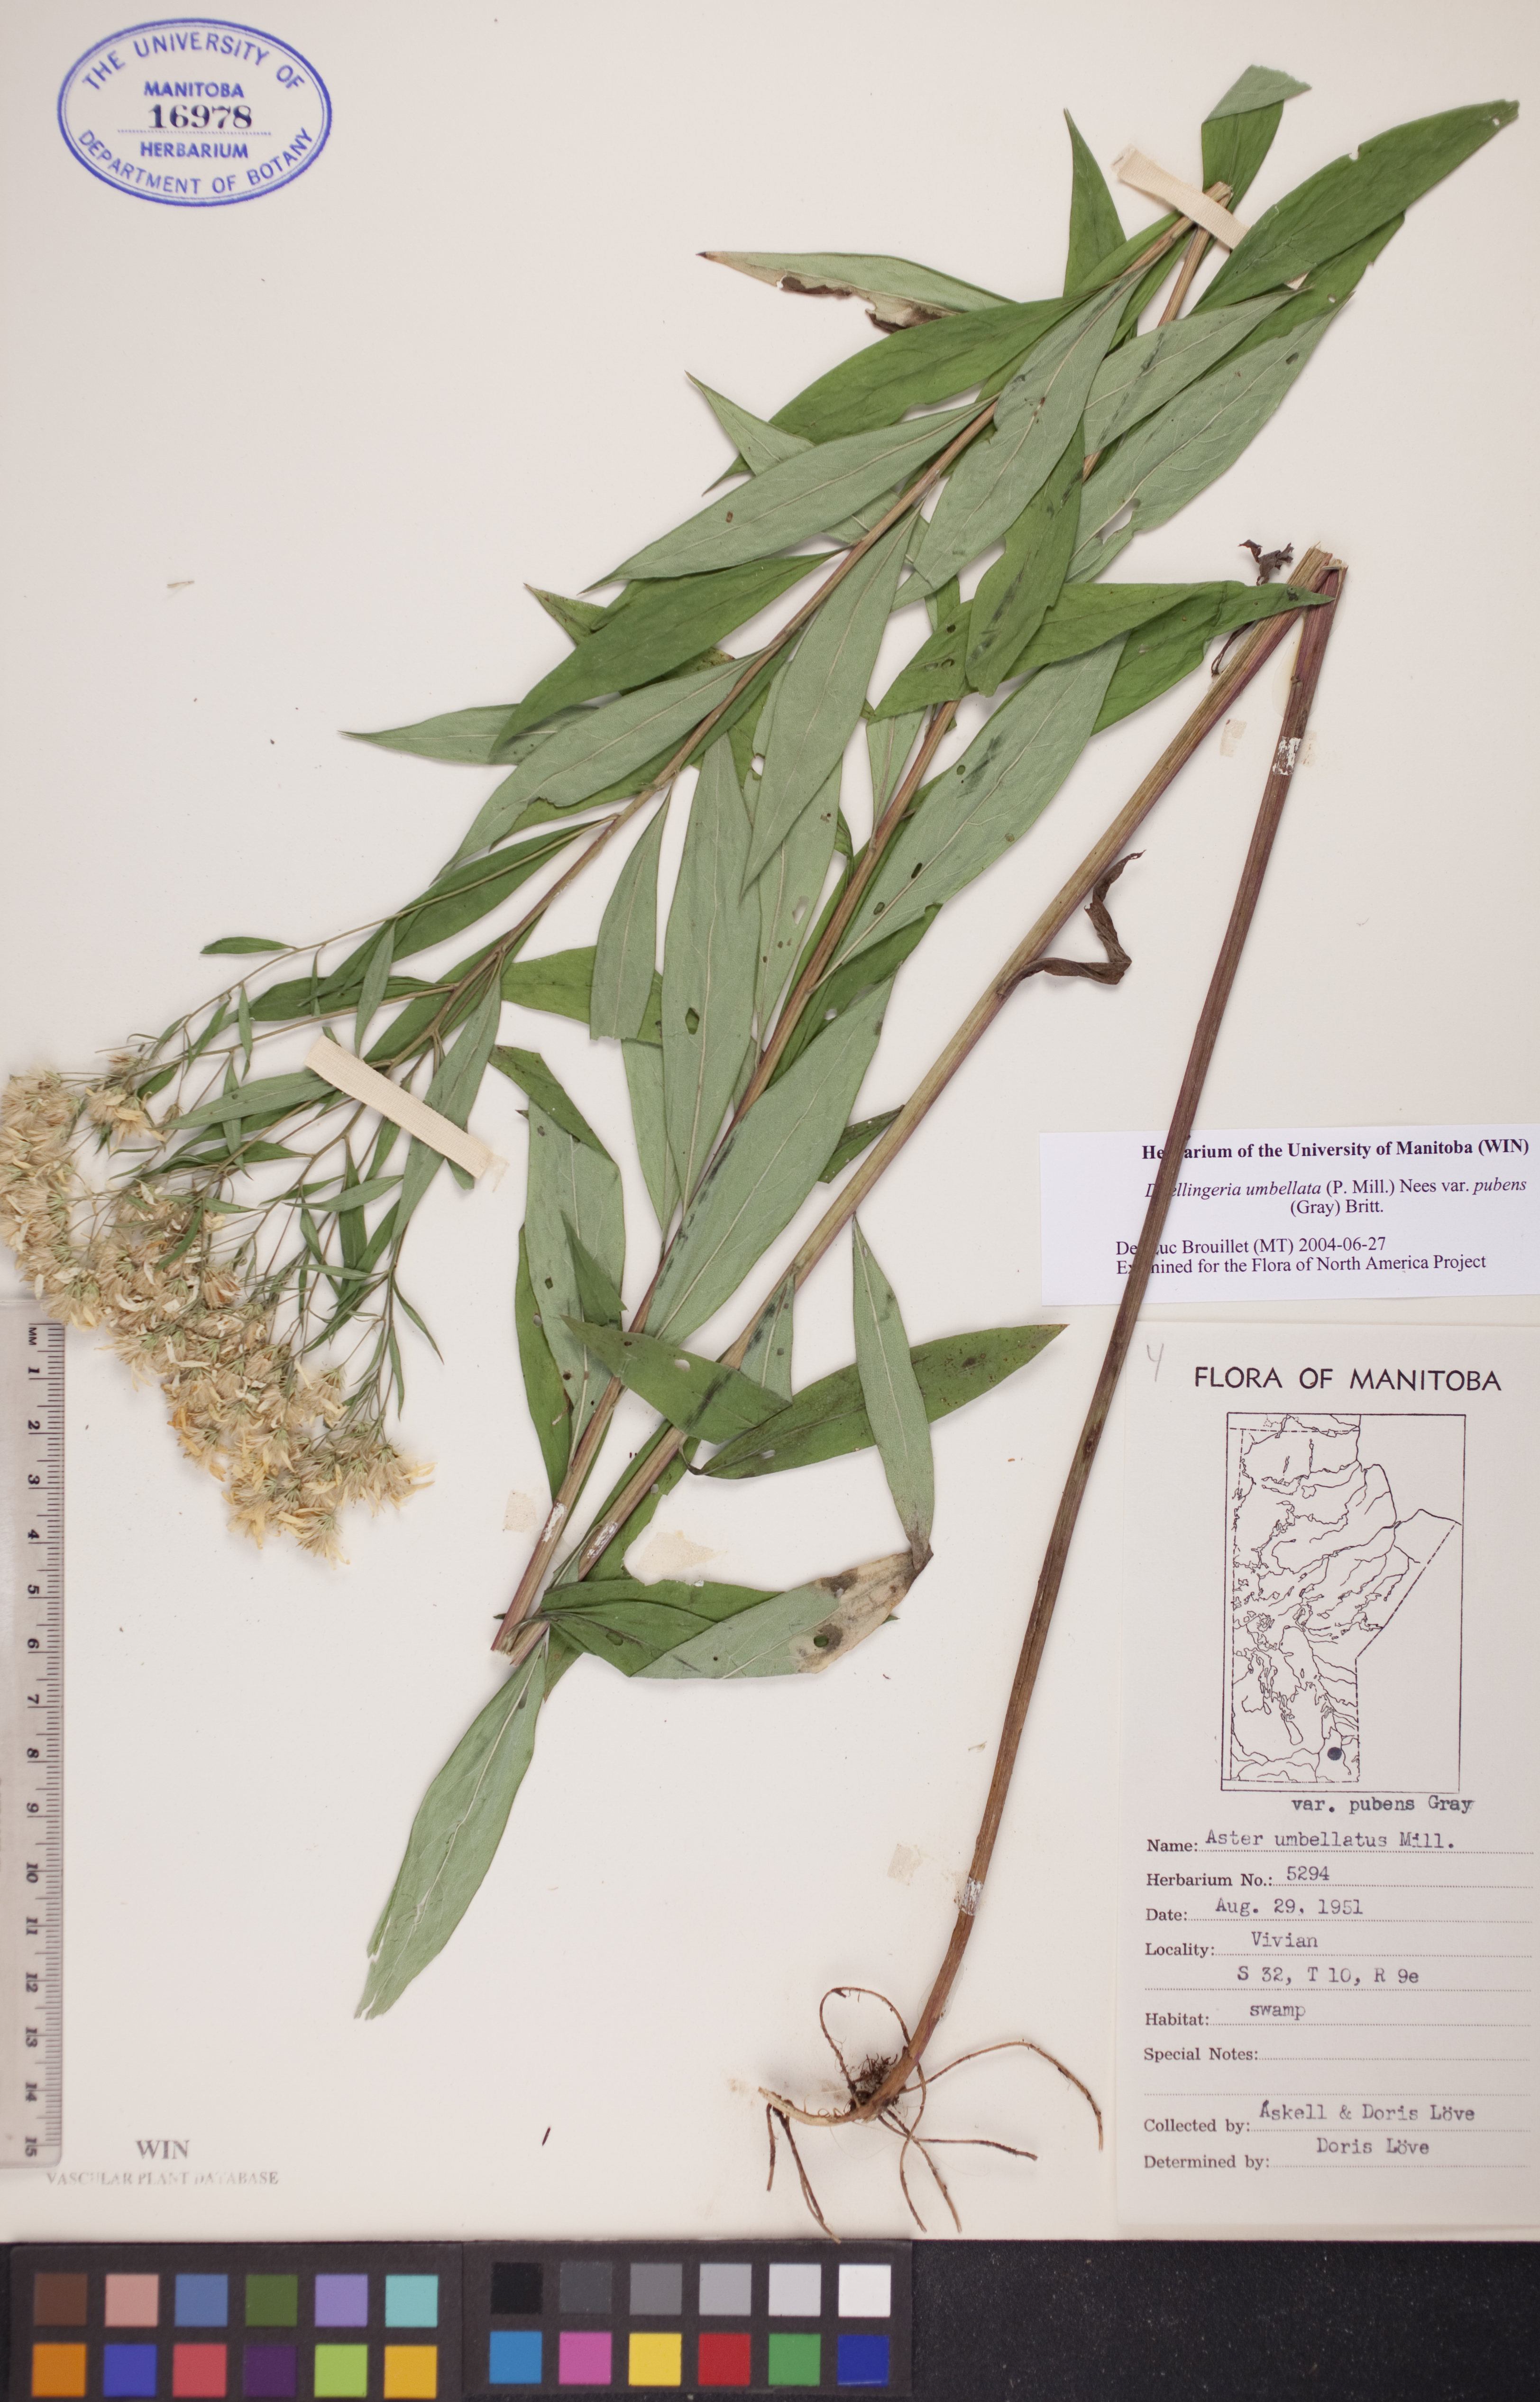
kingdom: Plantae
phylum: Tracheophyta
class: Magnoliopsida
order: Asterales
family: Asteraceae
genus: Doellingeria
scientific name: Doellingeria umbellata
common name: Flat-top white aster
